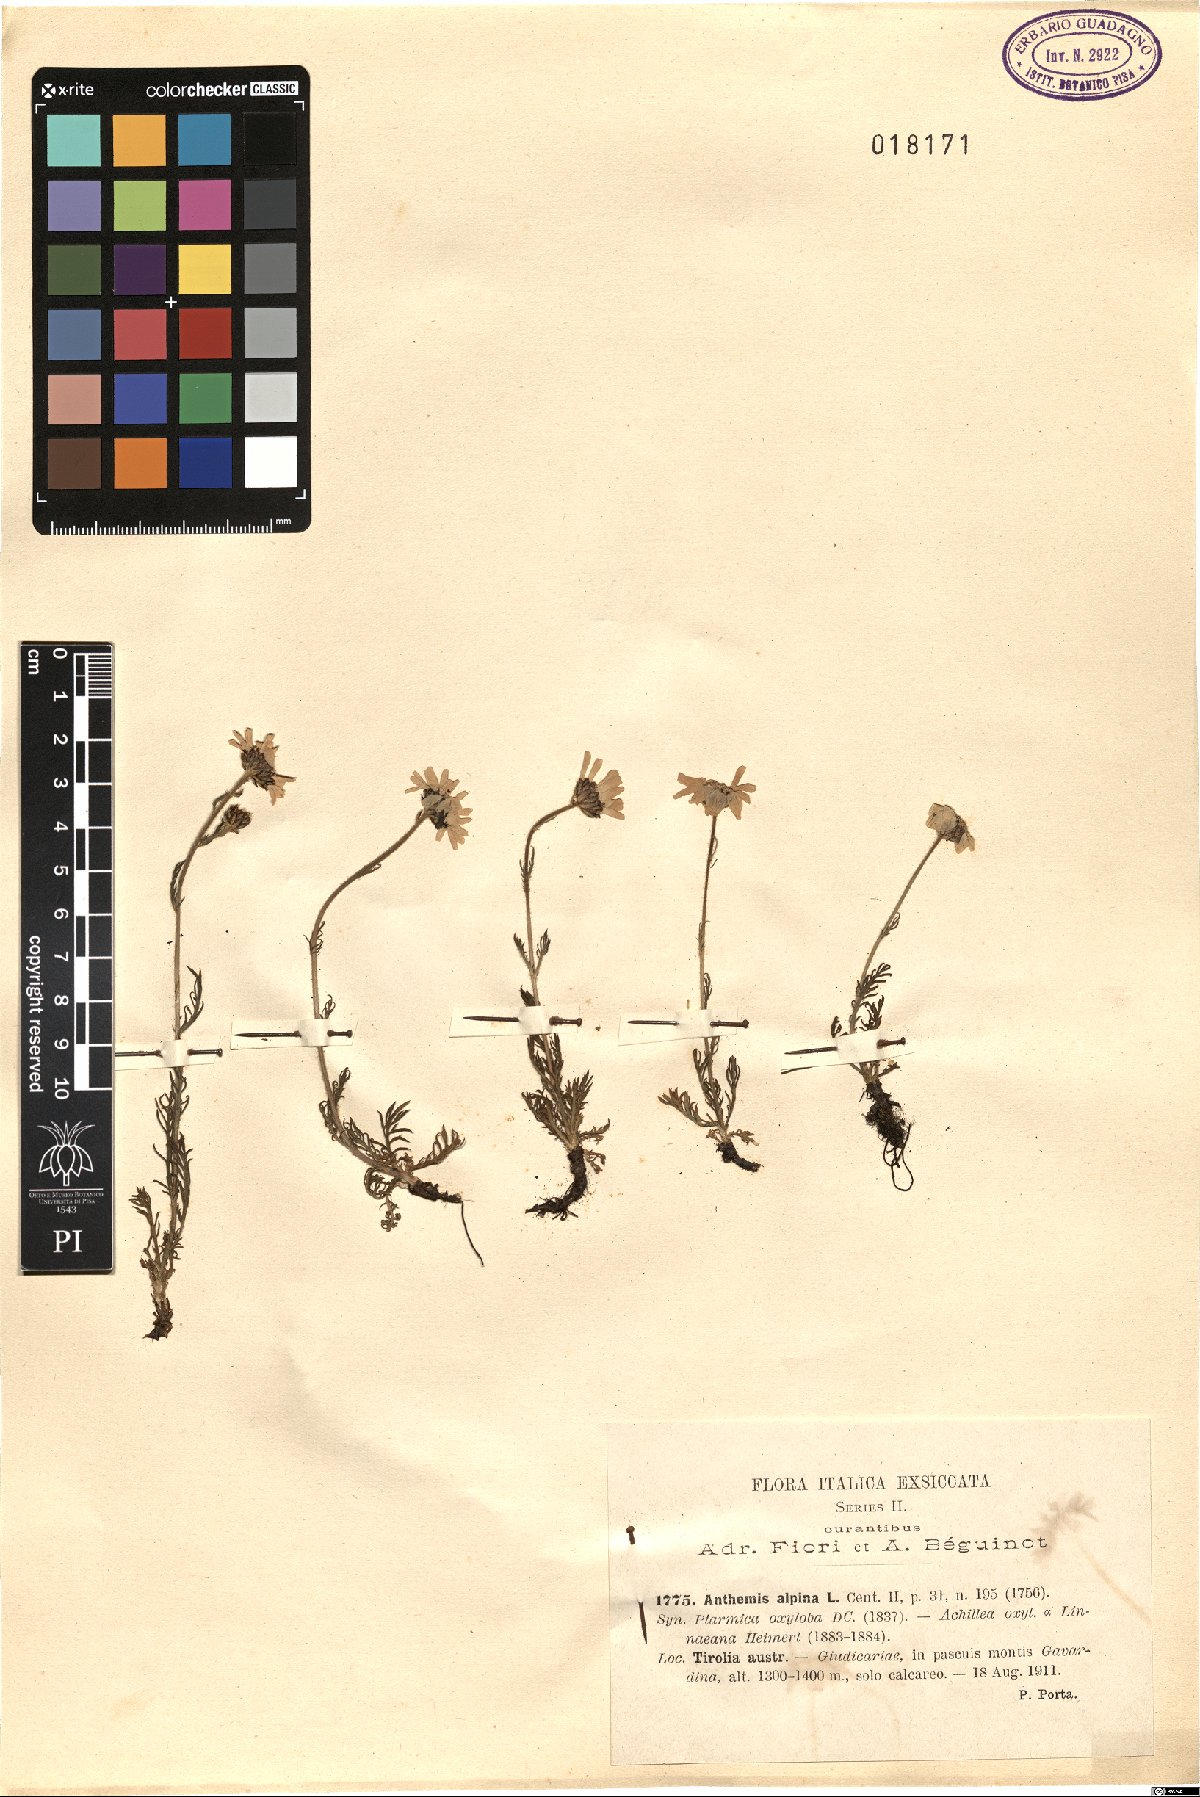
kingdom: Plantae
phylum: Tracheophyta
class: Magnoliopsida
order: Asterales
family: Asteraceae
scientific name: Asteraceae
